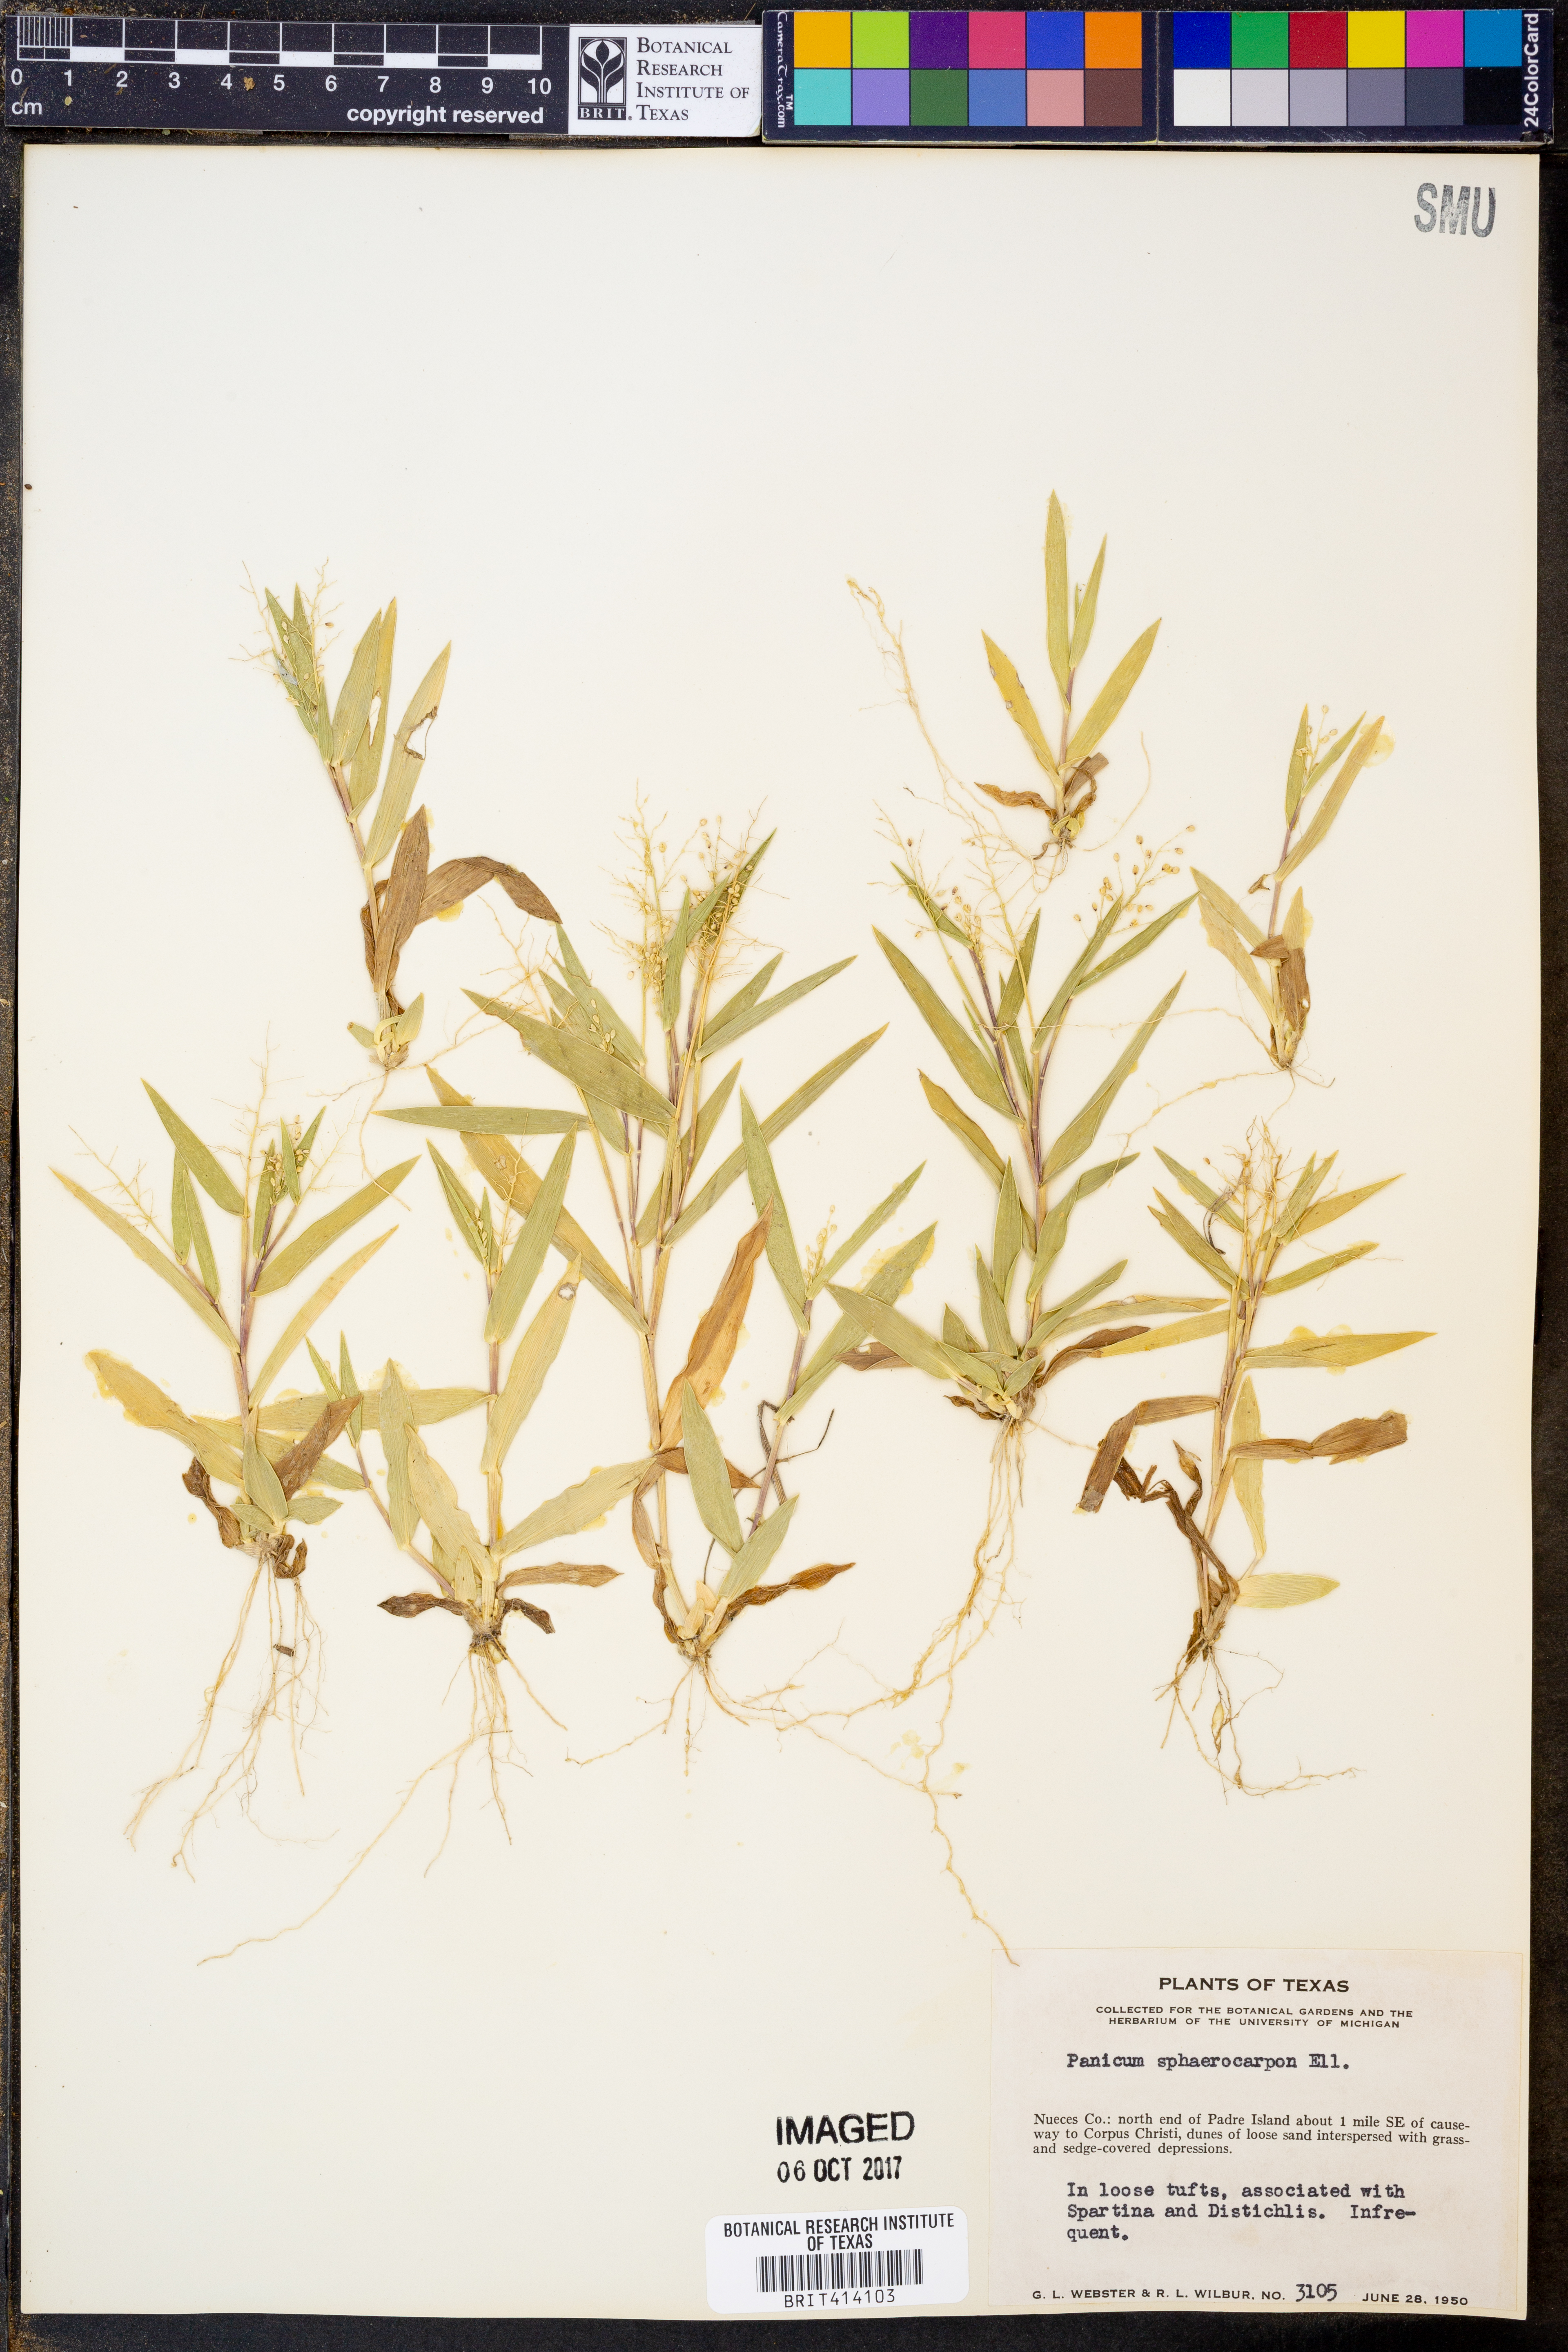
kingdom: Plantae
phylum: Tracheophyta
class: Liliopsida
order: Poales
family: Poaceae
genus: Dichanthelium
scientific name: Dichanthelium sphaerocarpon
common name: Round-fruited panicgrass
